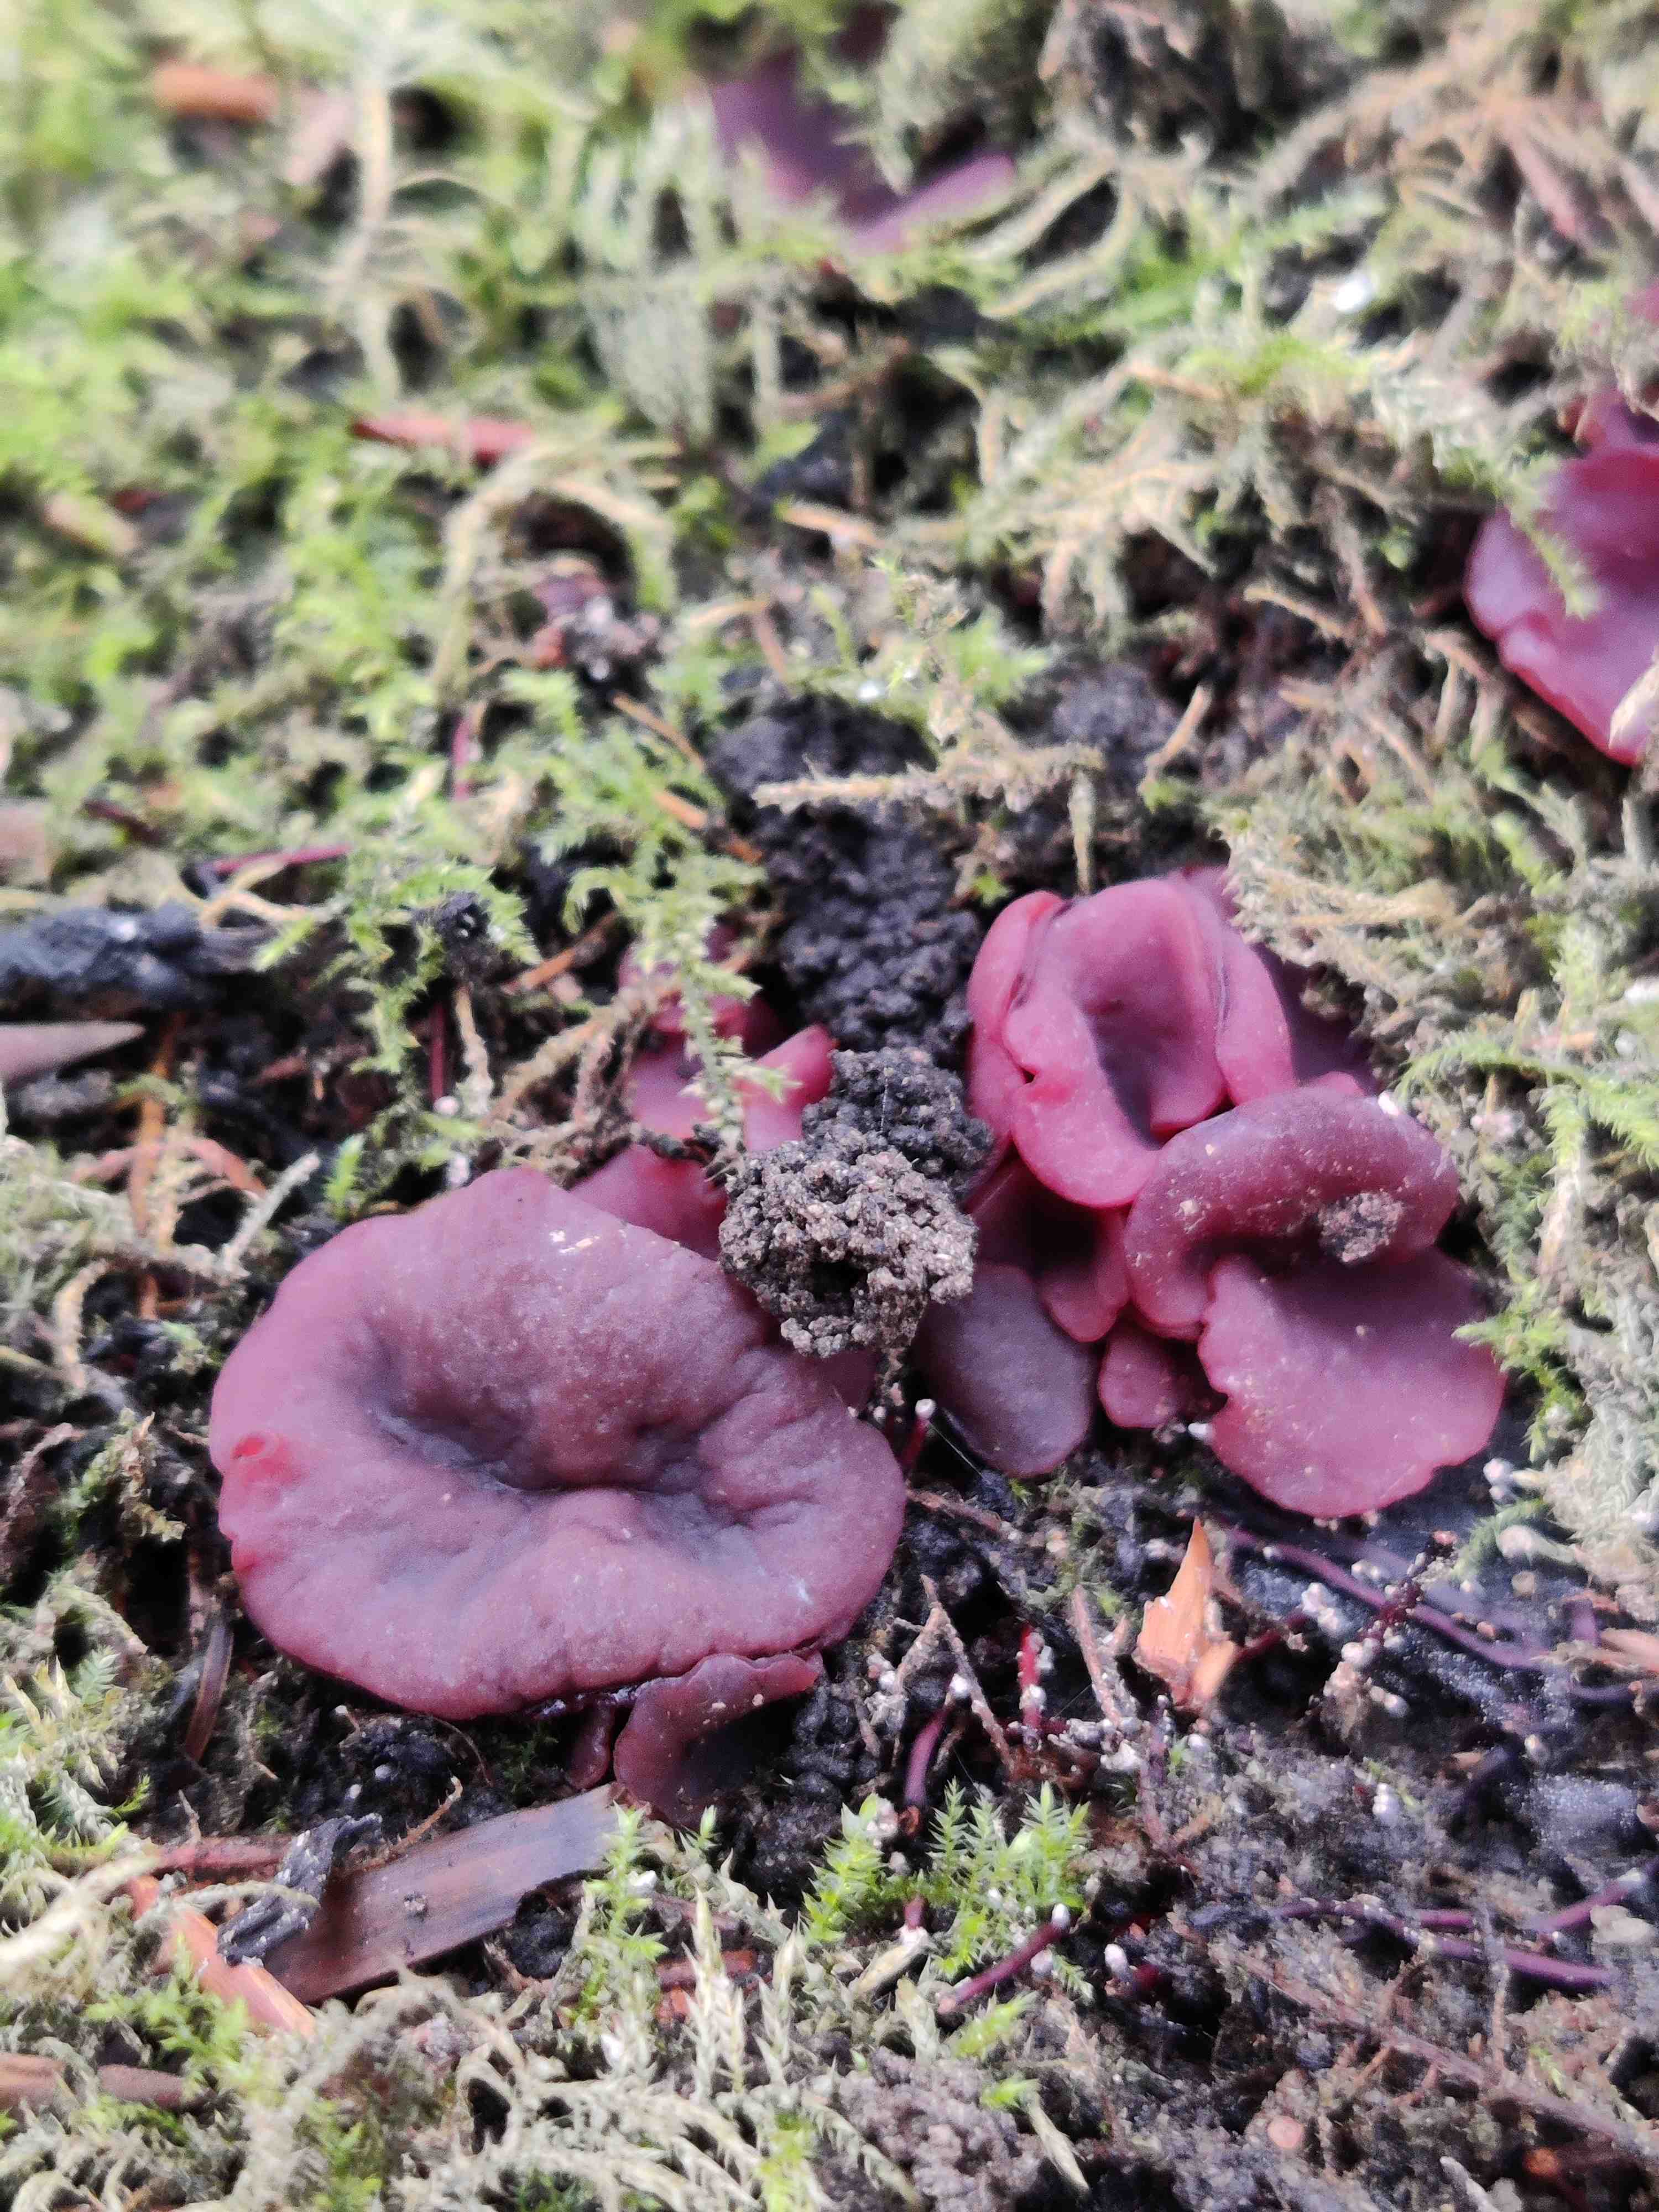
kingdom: Fungi
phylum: Ascomycota
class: Leotiomycetes
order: Helotiales
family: Gelatinodiscaceae
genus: Ascocoryne
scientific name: Ascocoryne cylichnium
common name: stor sejskive
